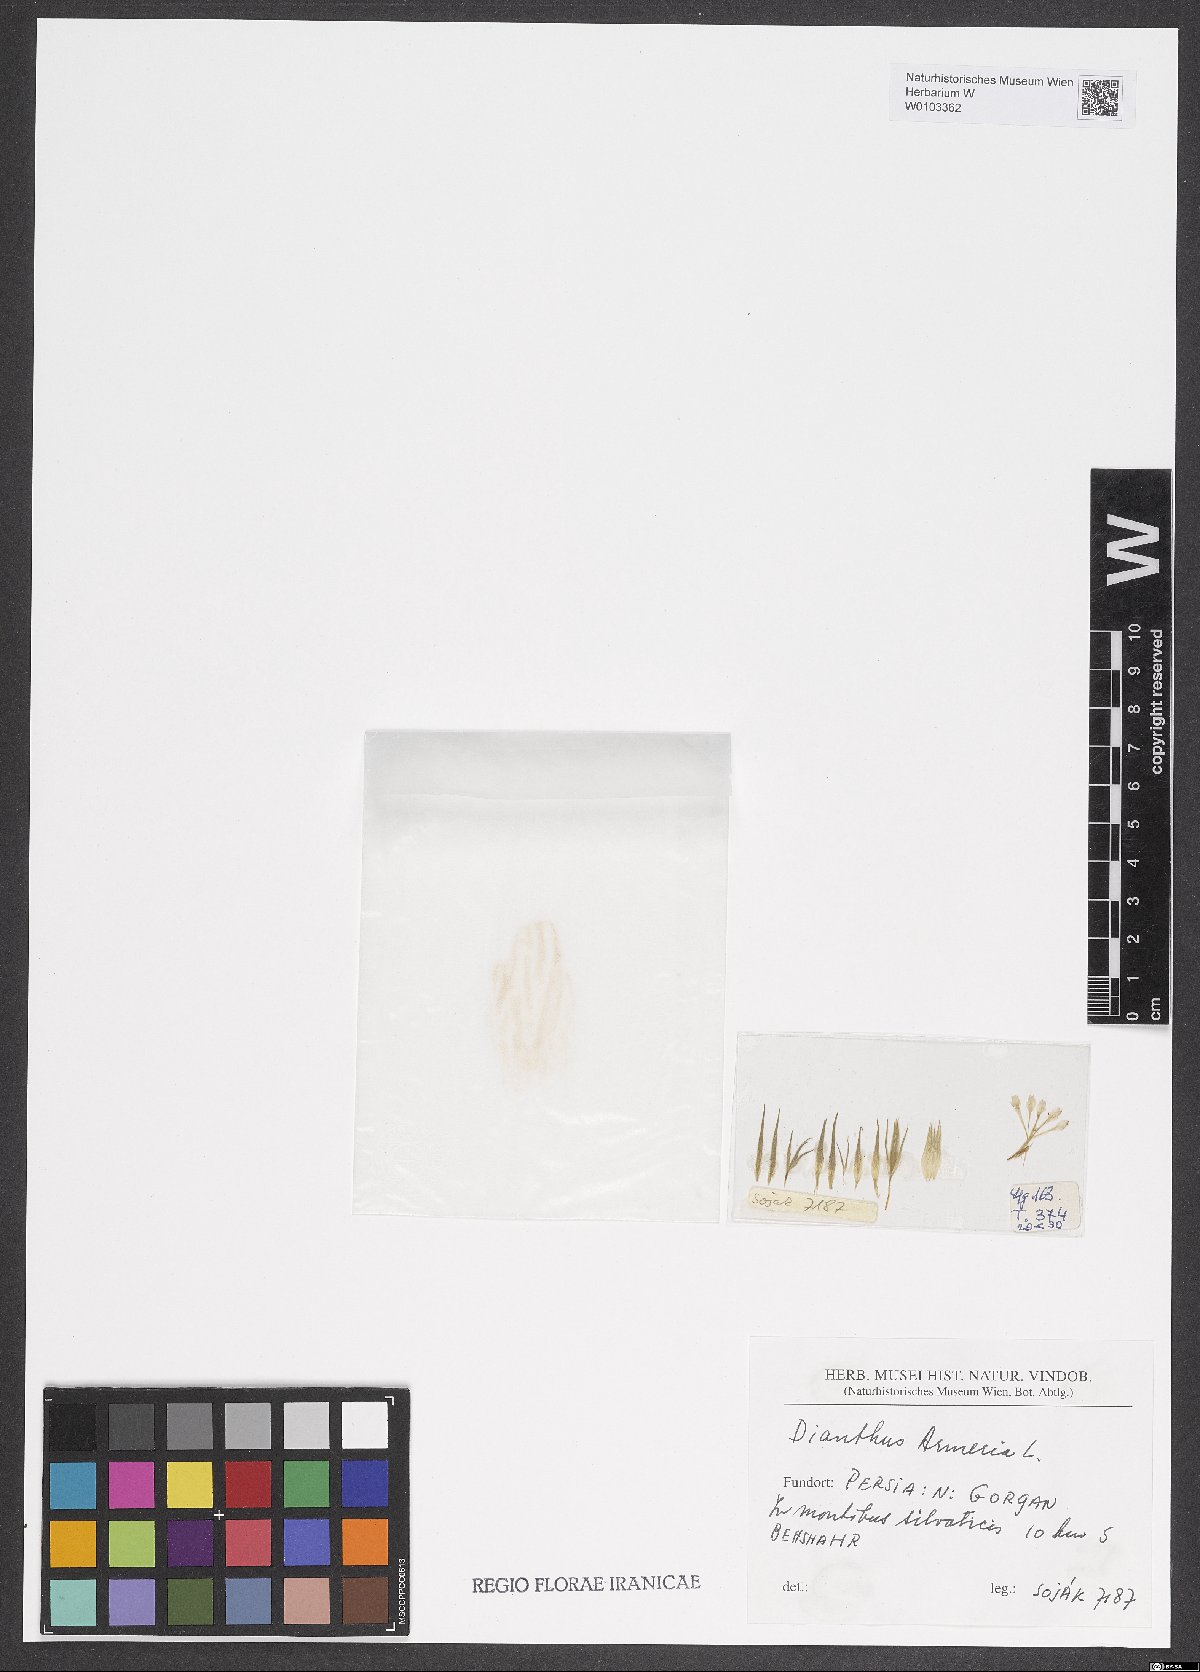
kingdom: Plantae
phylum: Tracheophyta
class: Magnoliopsida
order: Caryophyllales
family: Caryophyllaceae
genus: Dianthus
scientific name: Dianthus armeria
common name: Deptford pink
